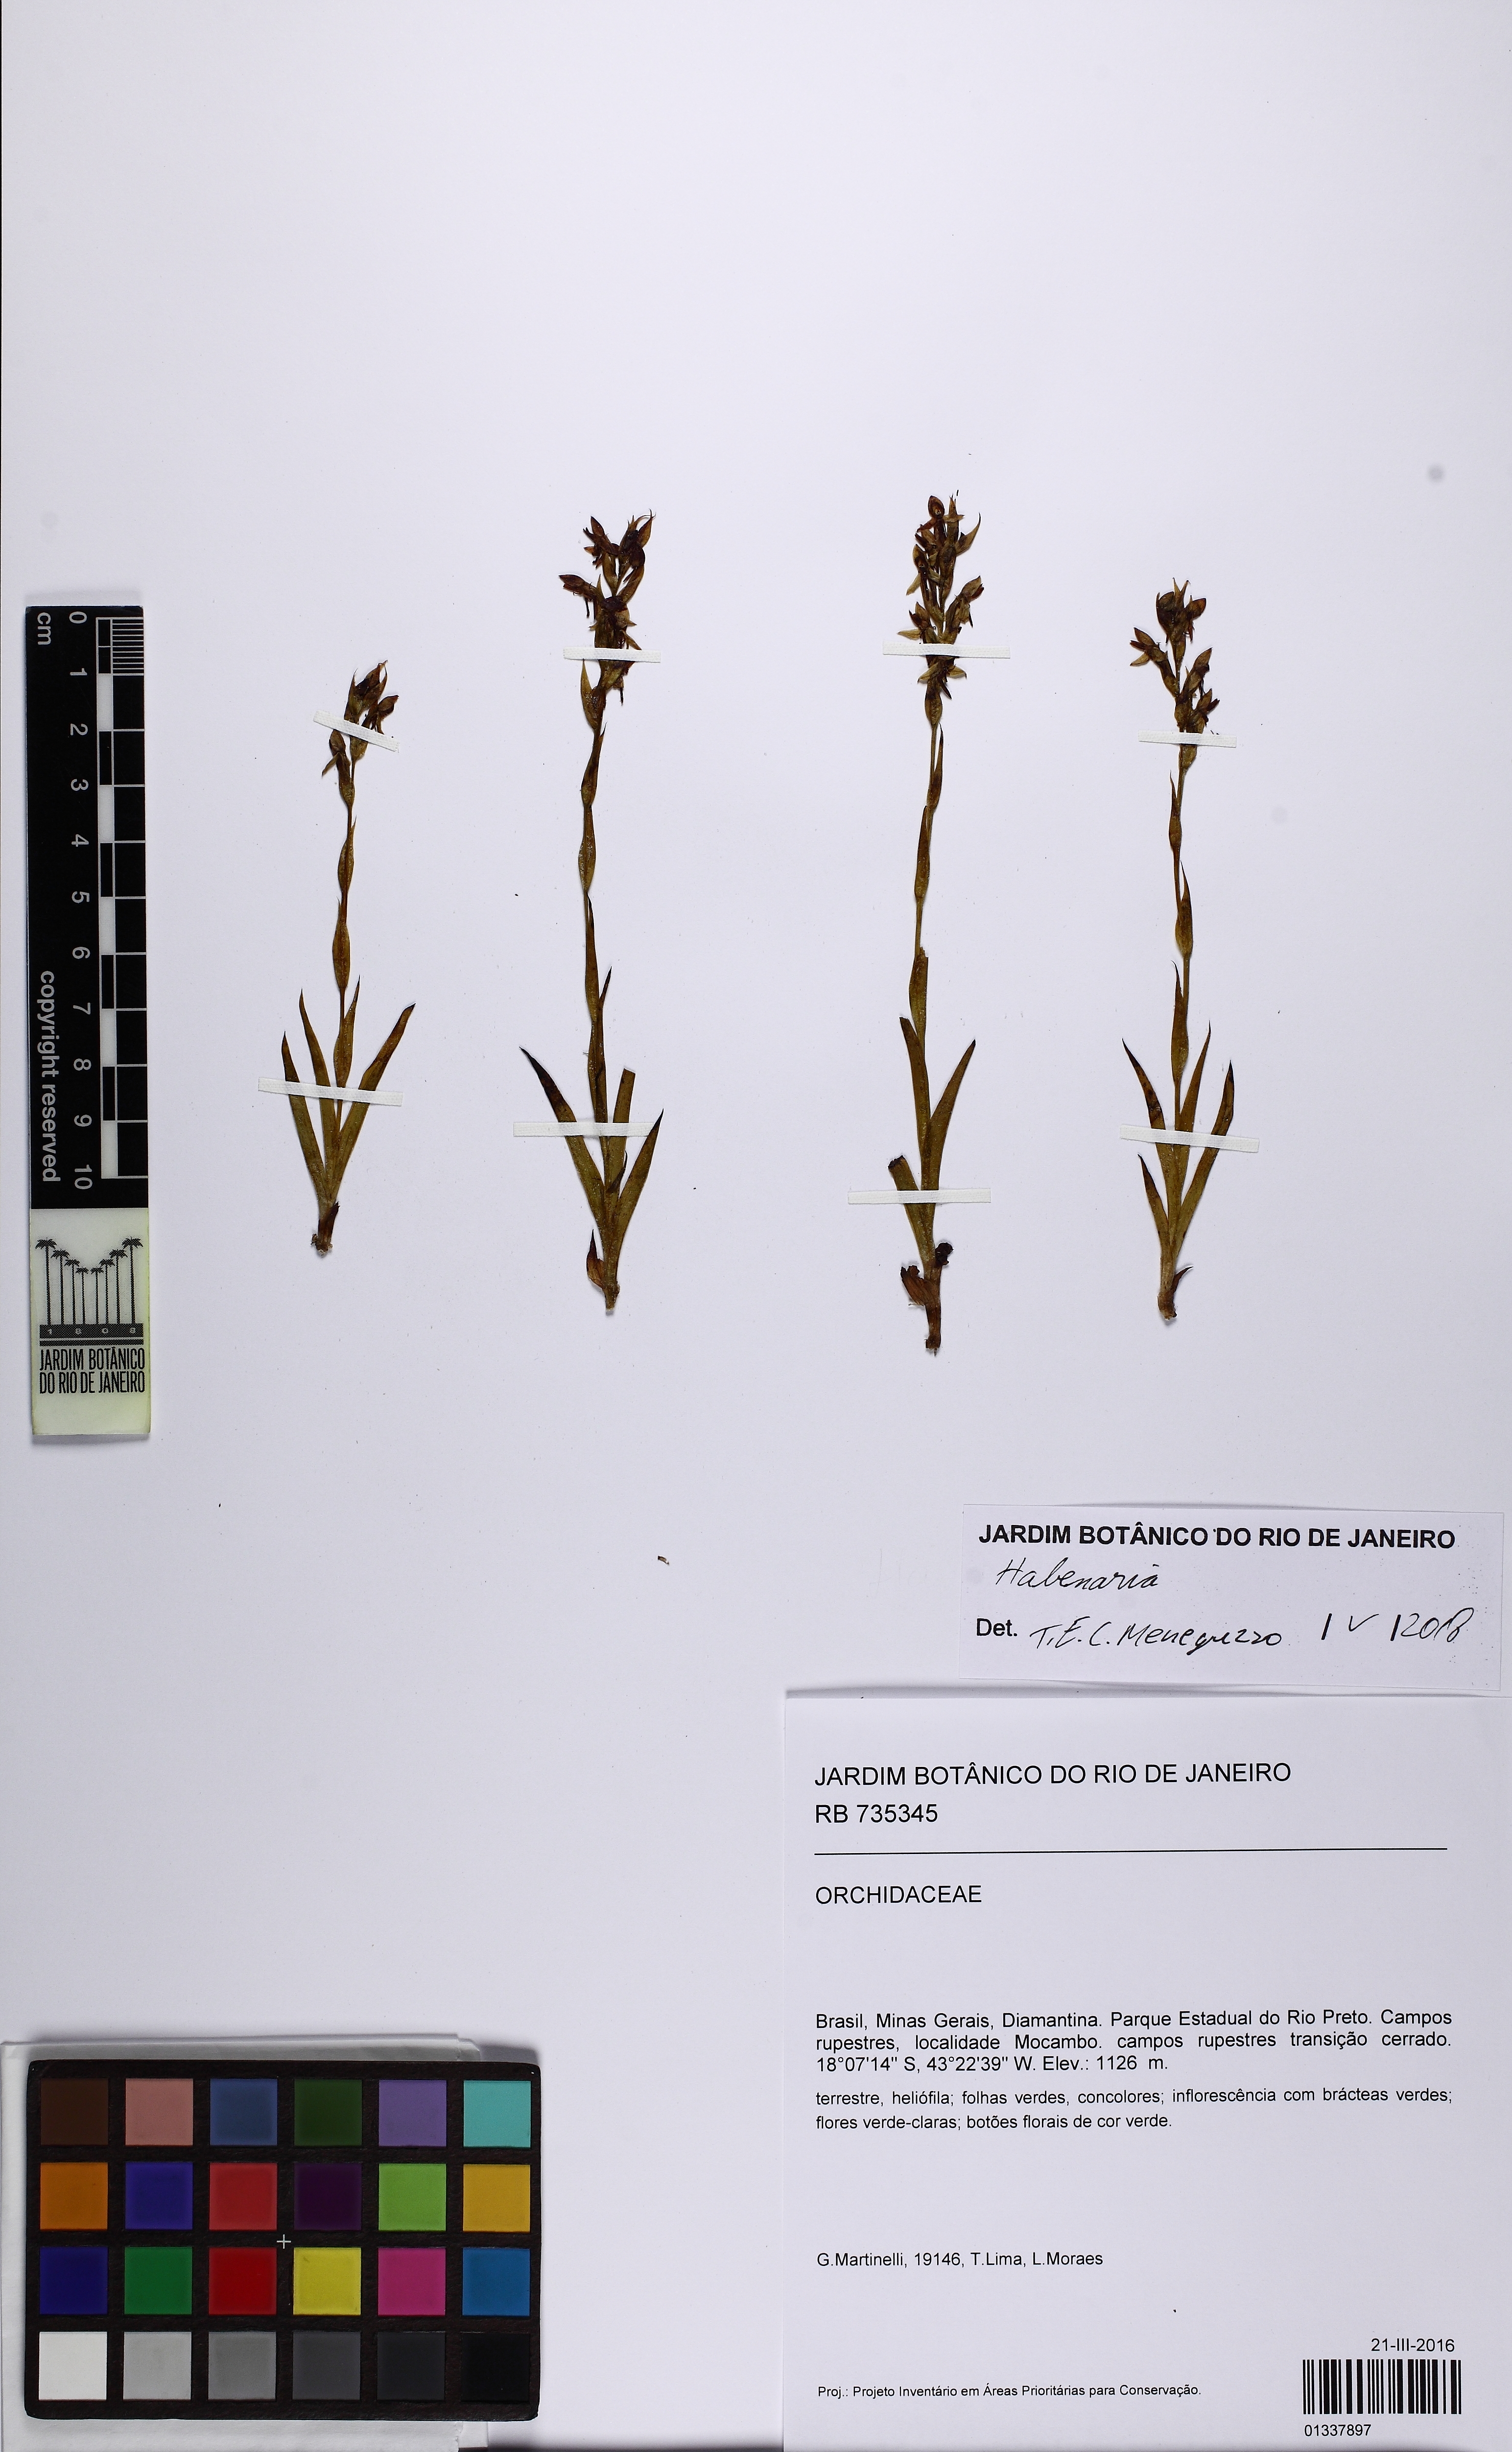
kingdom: Plantae
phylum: Tracheophyta
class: Liliopsida
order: Asparagales
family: Orchidaceae
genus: Habenaria
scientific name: Habenaria
